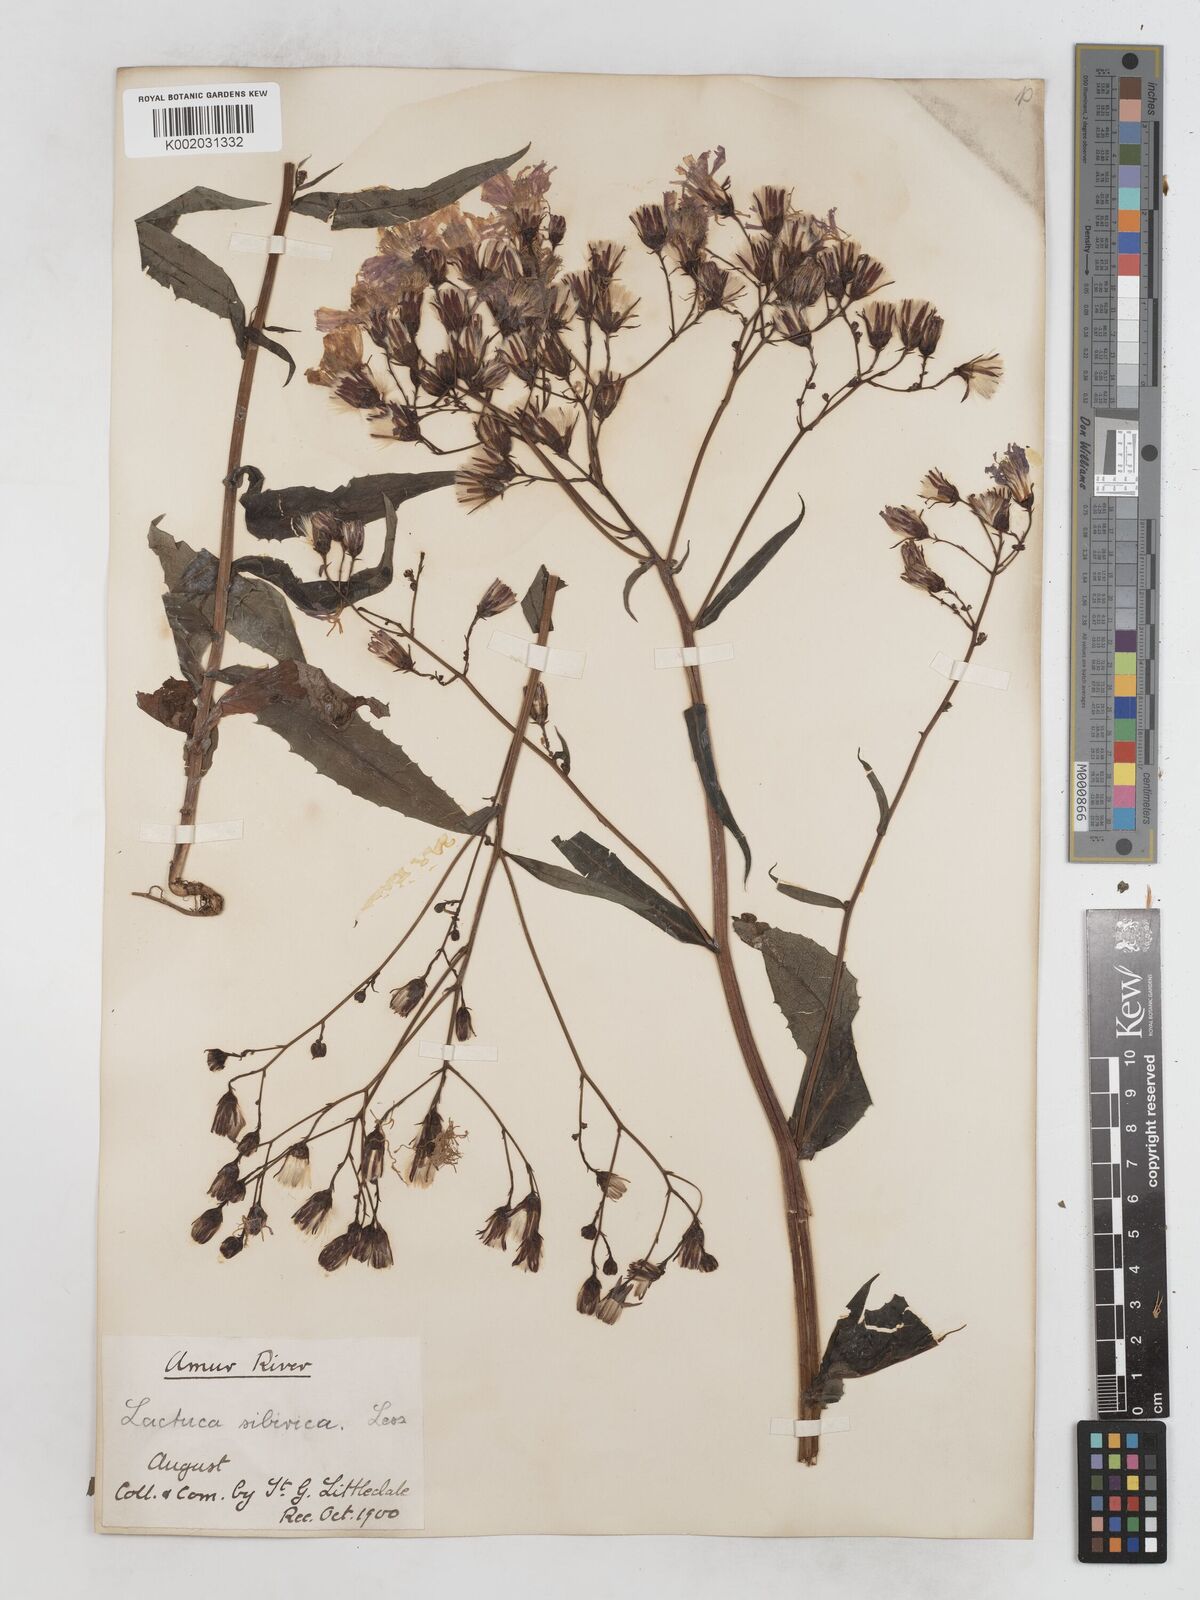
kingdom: Plantae
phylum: Tracheophyta
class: Magnoliopsida
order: Asterales
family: Asteraceae
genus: Lactuca
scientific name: Lactuca sibirica
